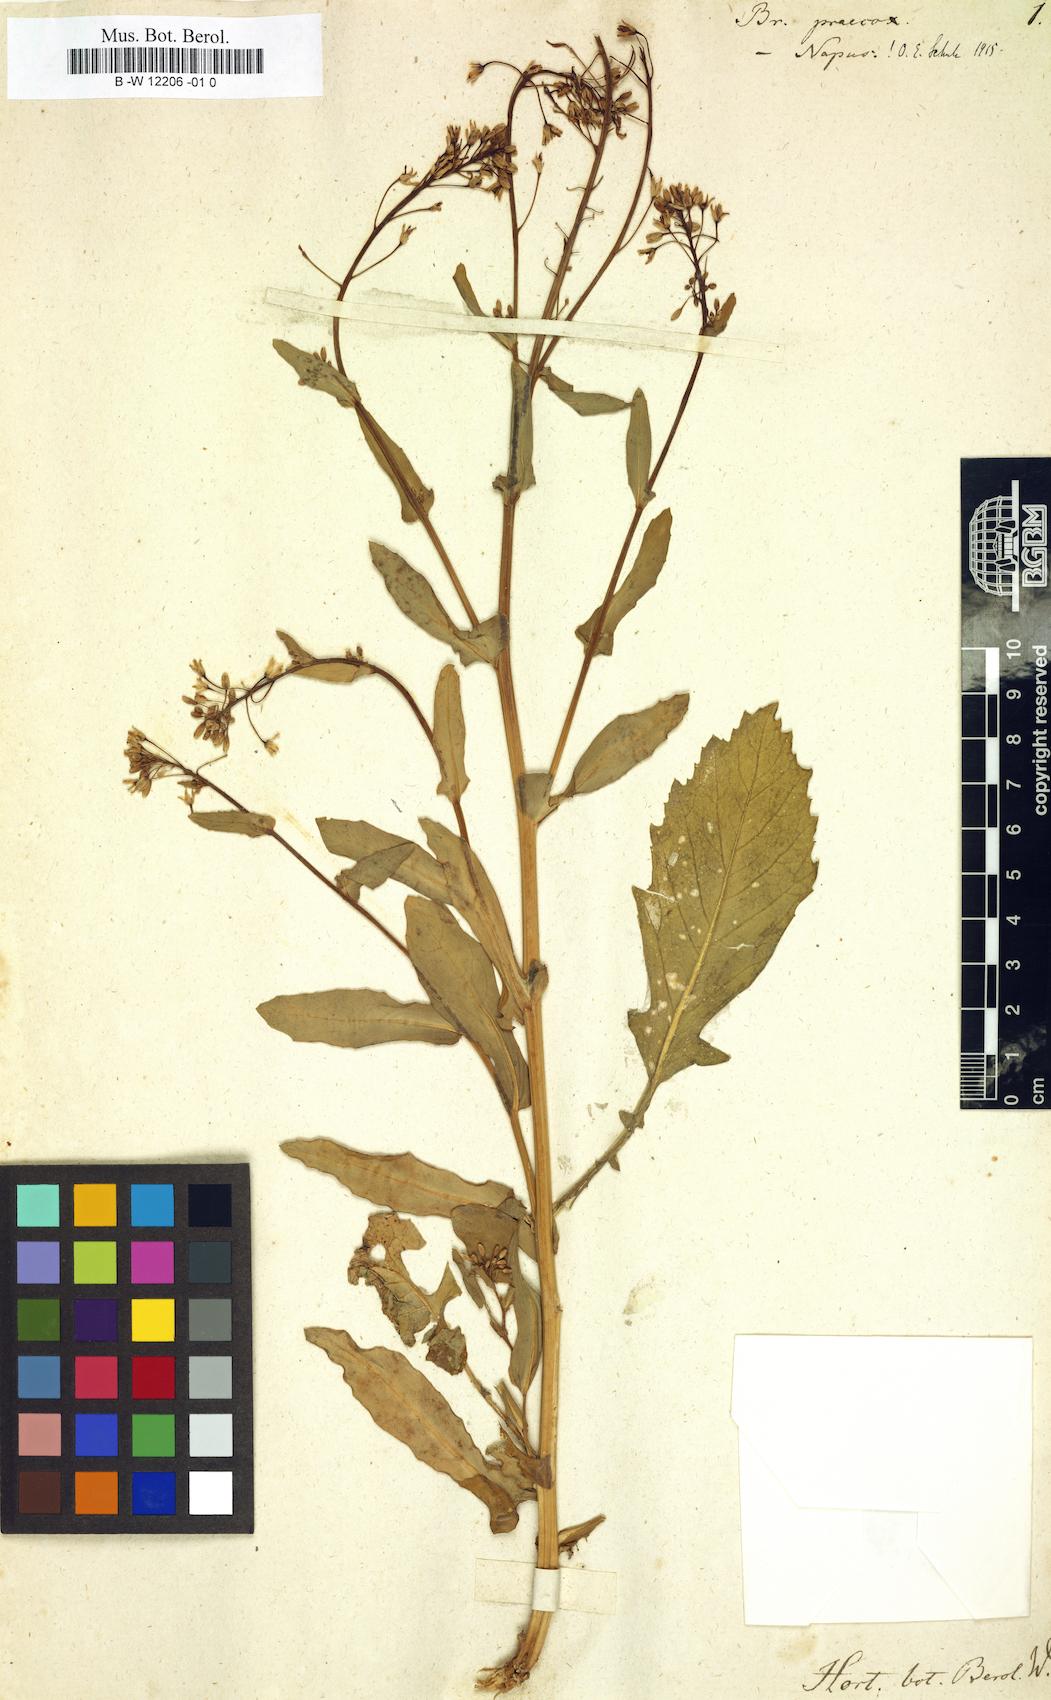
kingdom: Plantae
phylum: Tracheophyta
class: Magnoliopsida
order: Brassicales
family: Brassicaceae
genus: Brassica
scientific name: Brassica napus
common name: Rape
